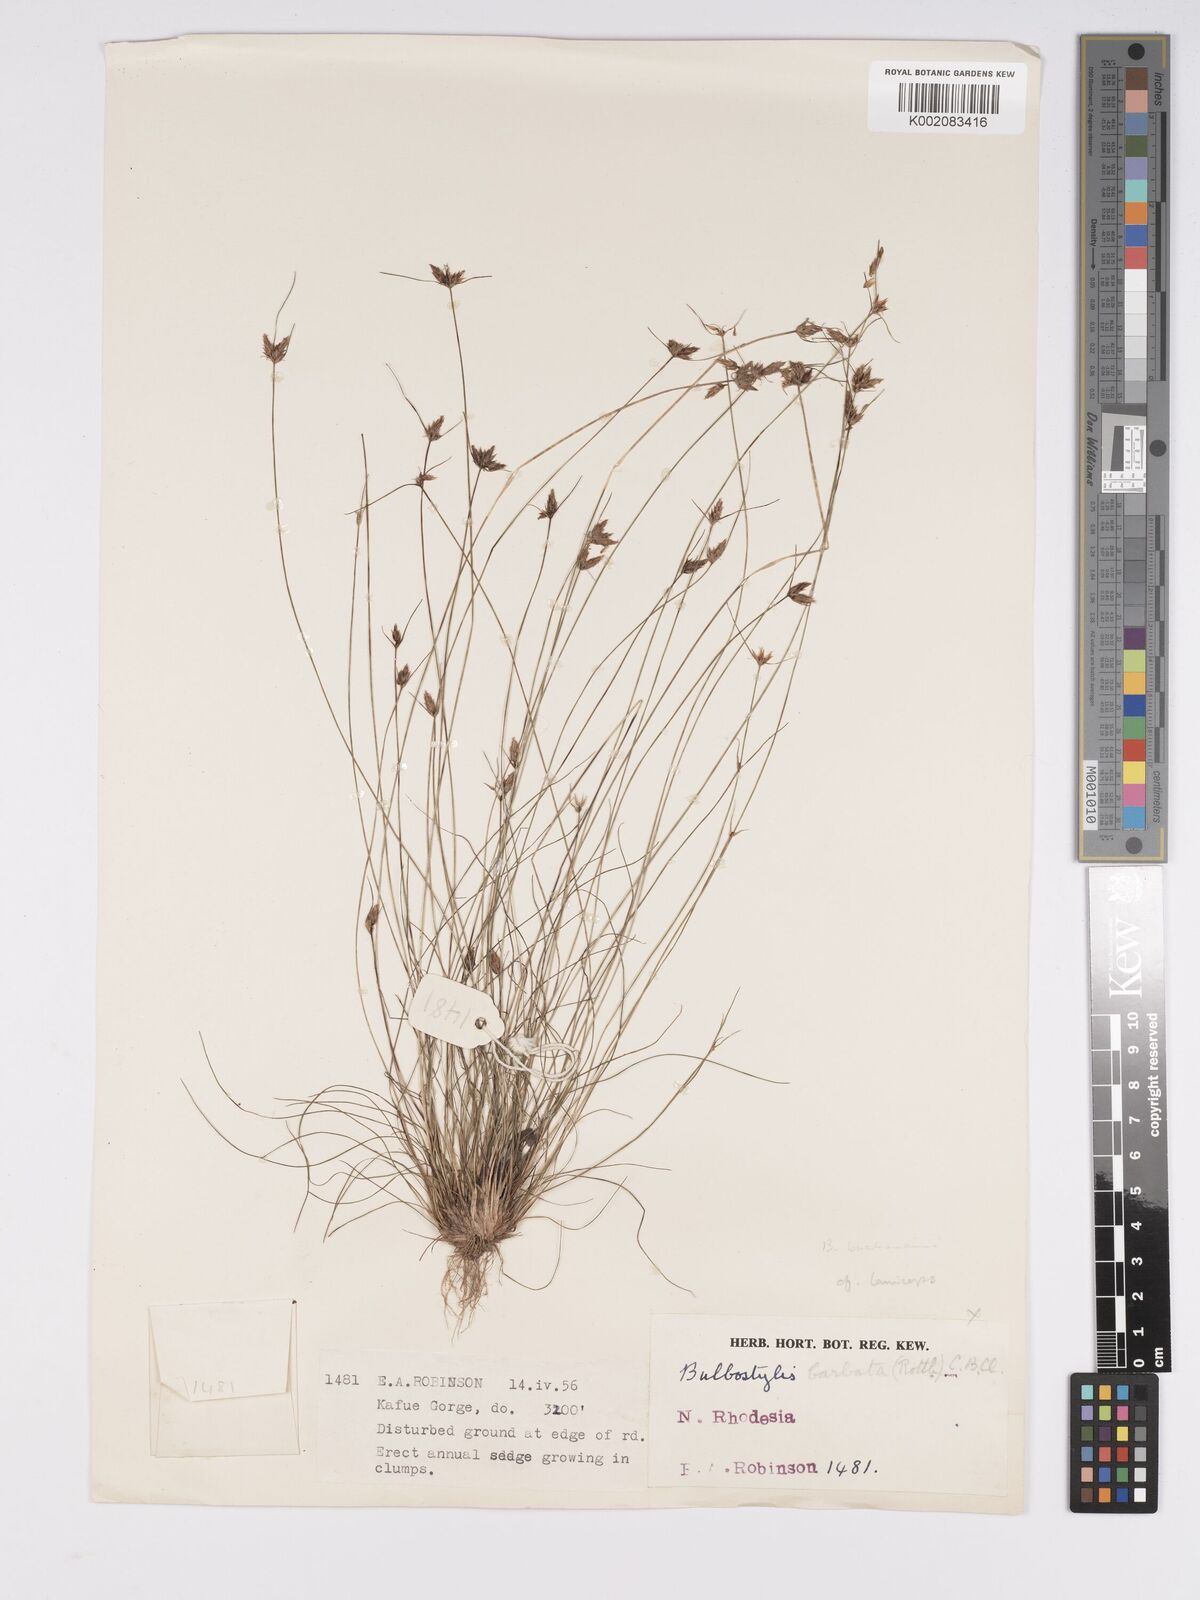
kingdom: Plantae
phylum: Tracheophyta
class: Liliopsida
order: Poales
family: Cyperaceae
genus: Bulbostylis
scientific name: Bulbostylis buchananii
